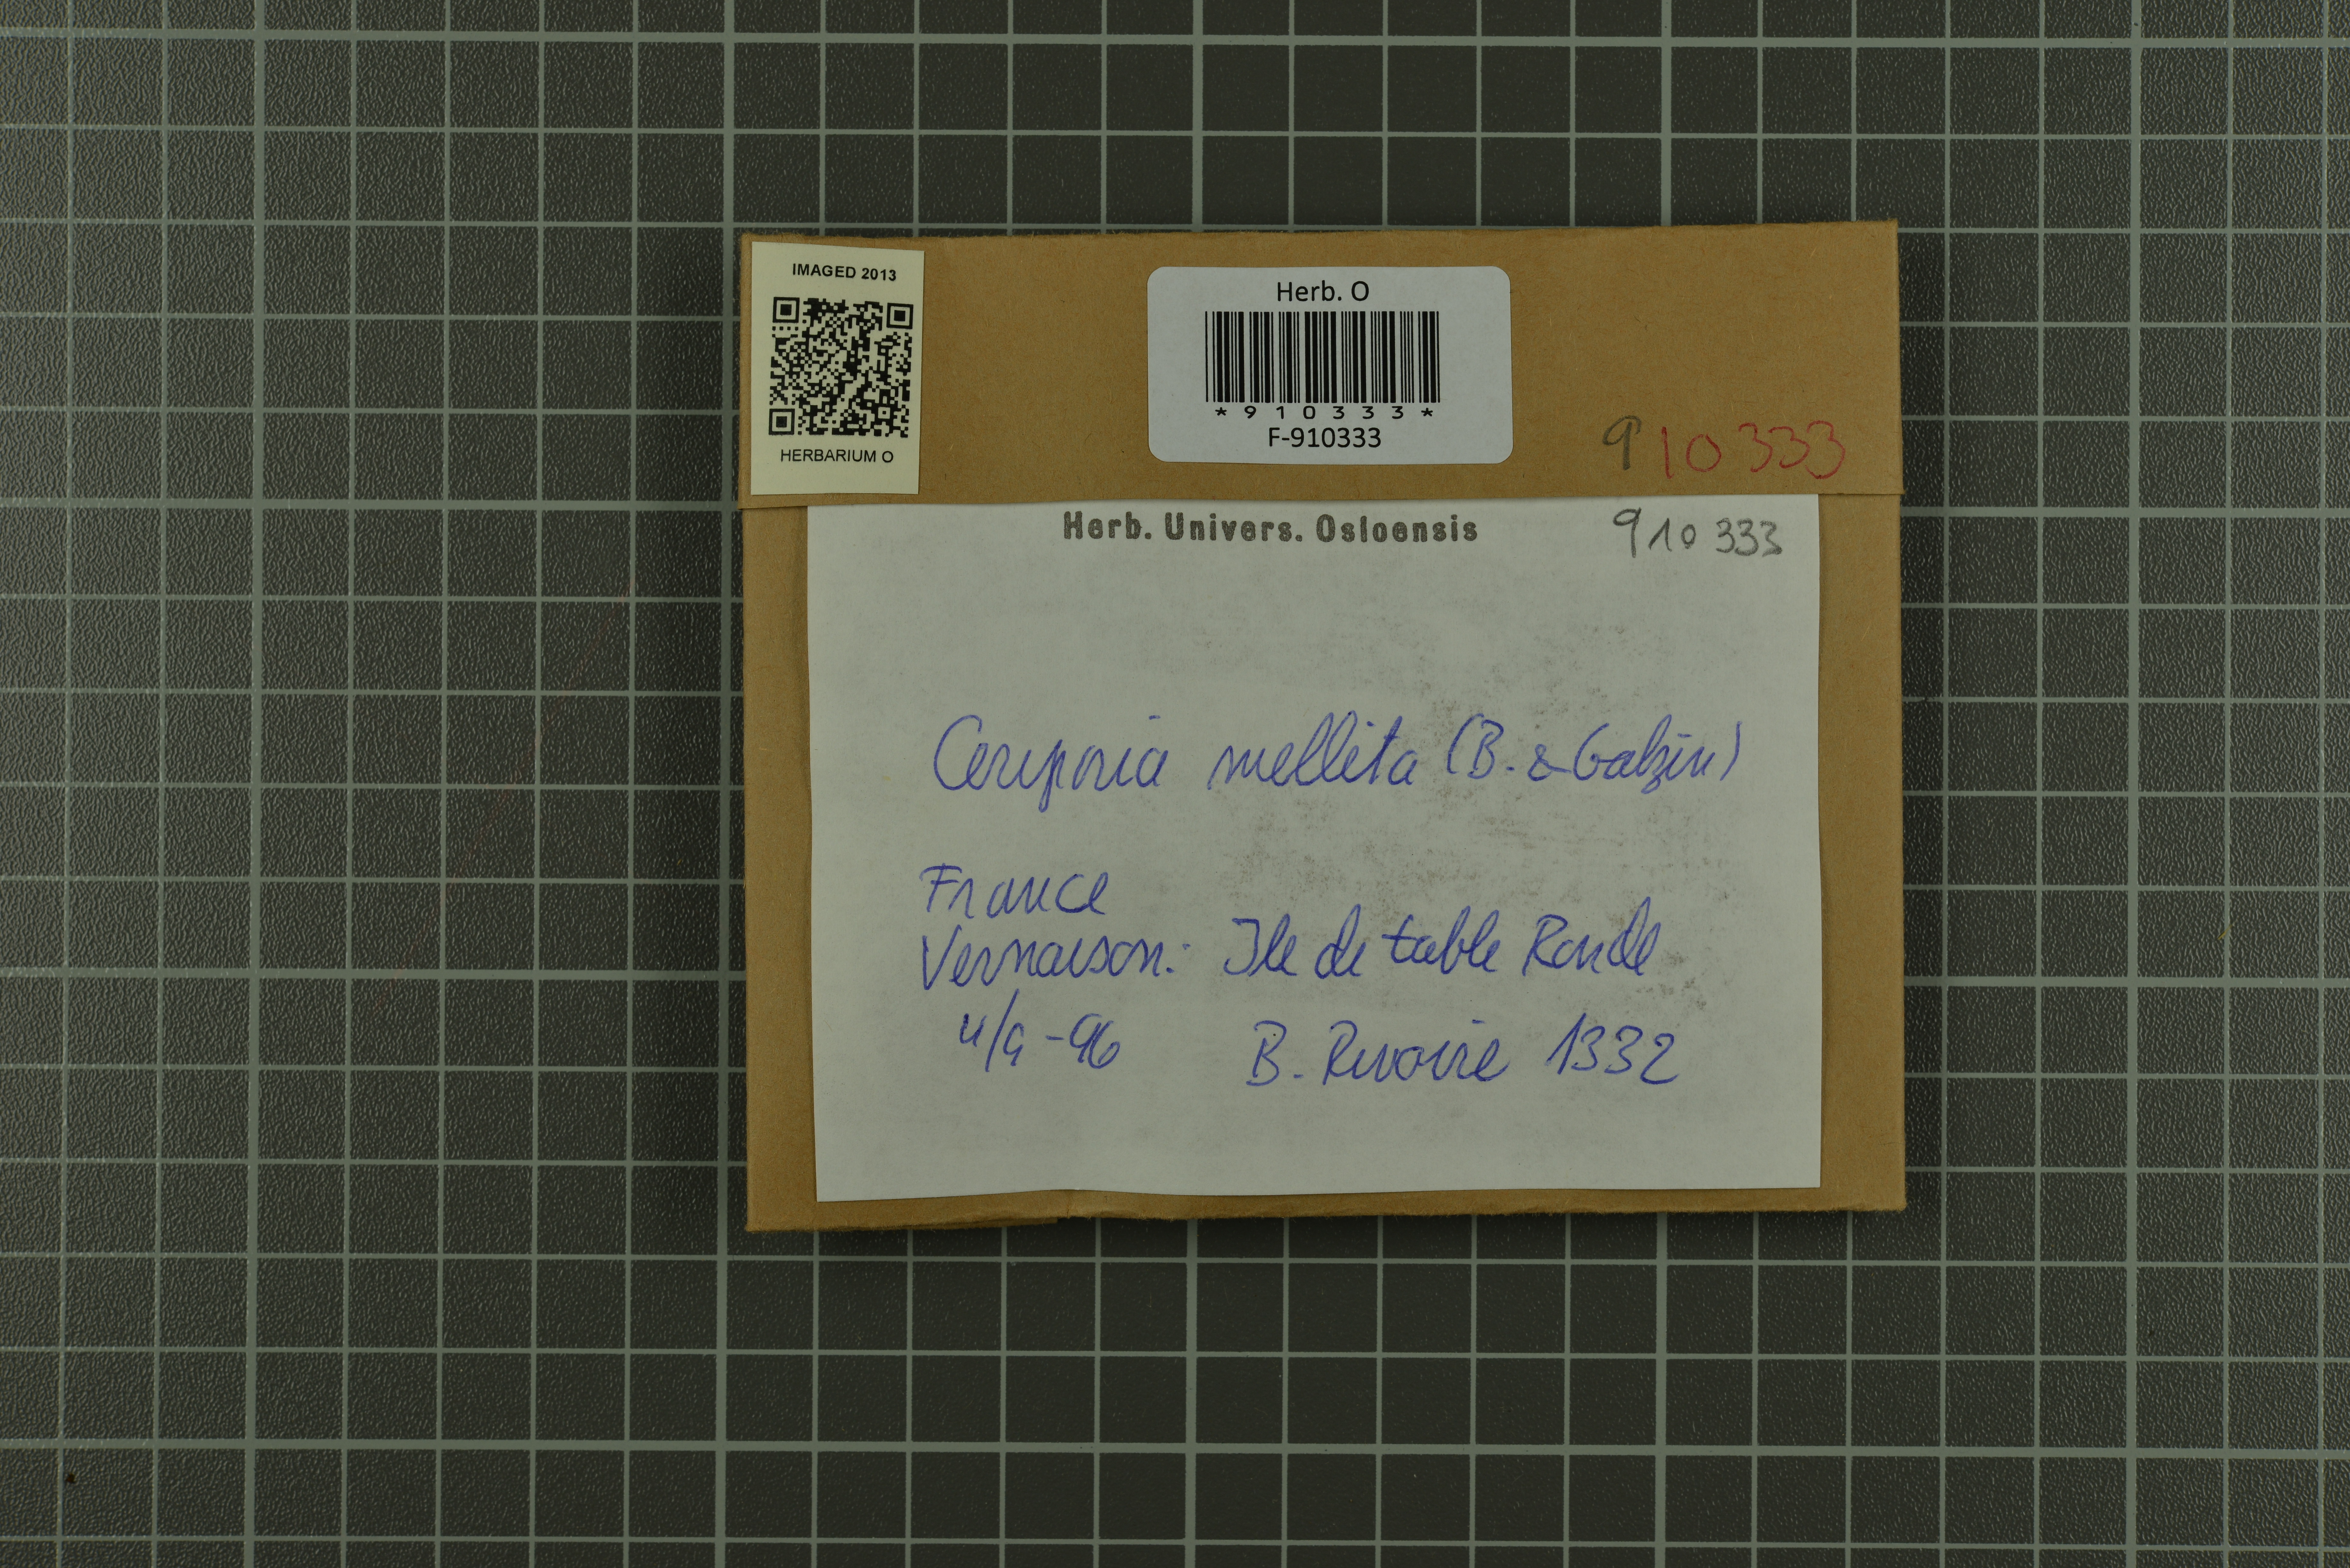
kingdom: Fungi
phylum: Basidiomycota
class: Agaricomycetes
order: Polyporales
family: Irpicaceae
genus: Ceriporia
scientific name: Ceriporia mellita
